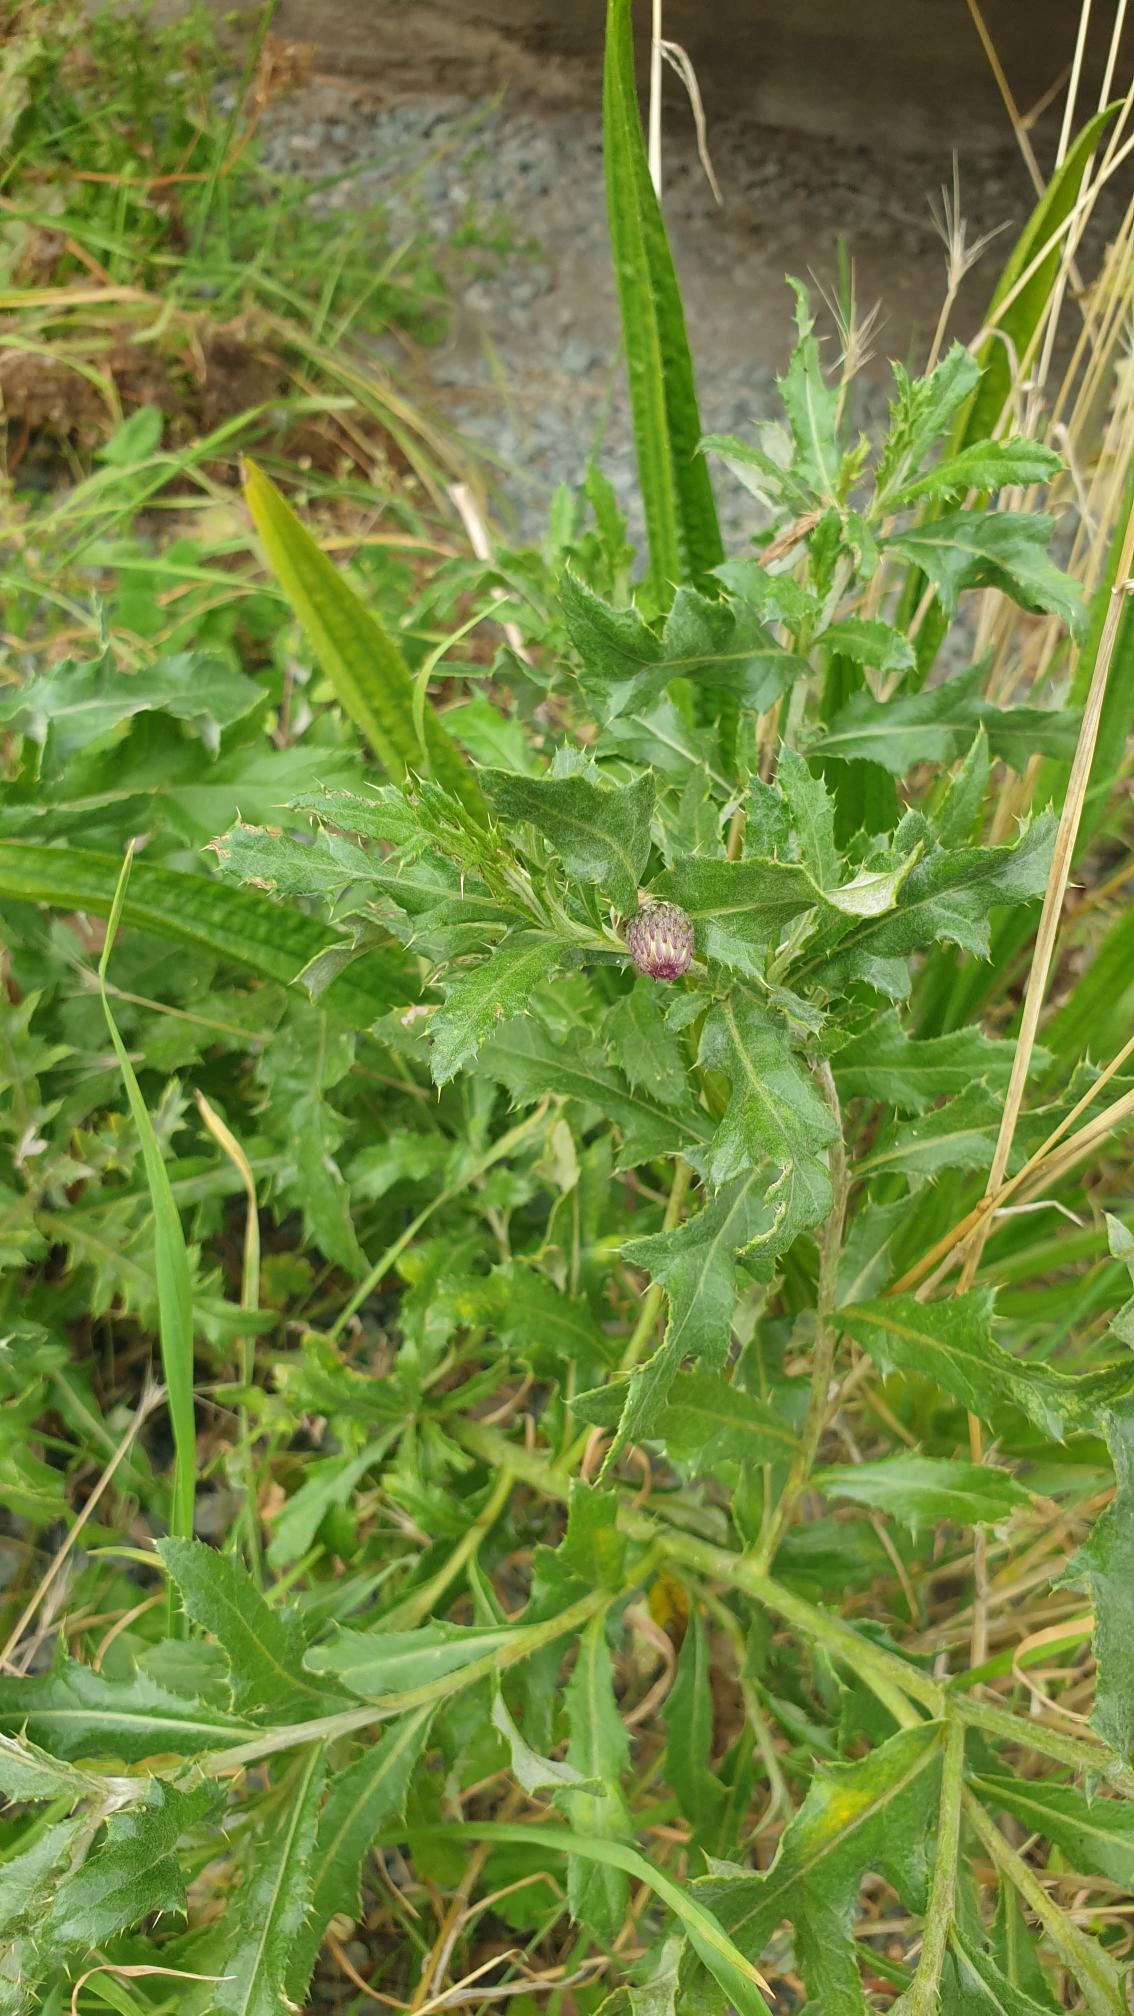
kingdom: Plantae
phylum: Tracheophyta
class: Magnoliopsida
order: Asterales
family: Asteraceae
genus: Cirsium
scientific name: Cirsium arvense
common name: Ager-tidsel
